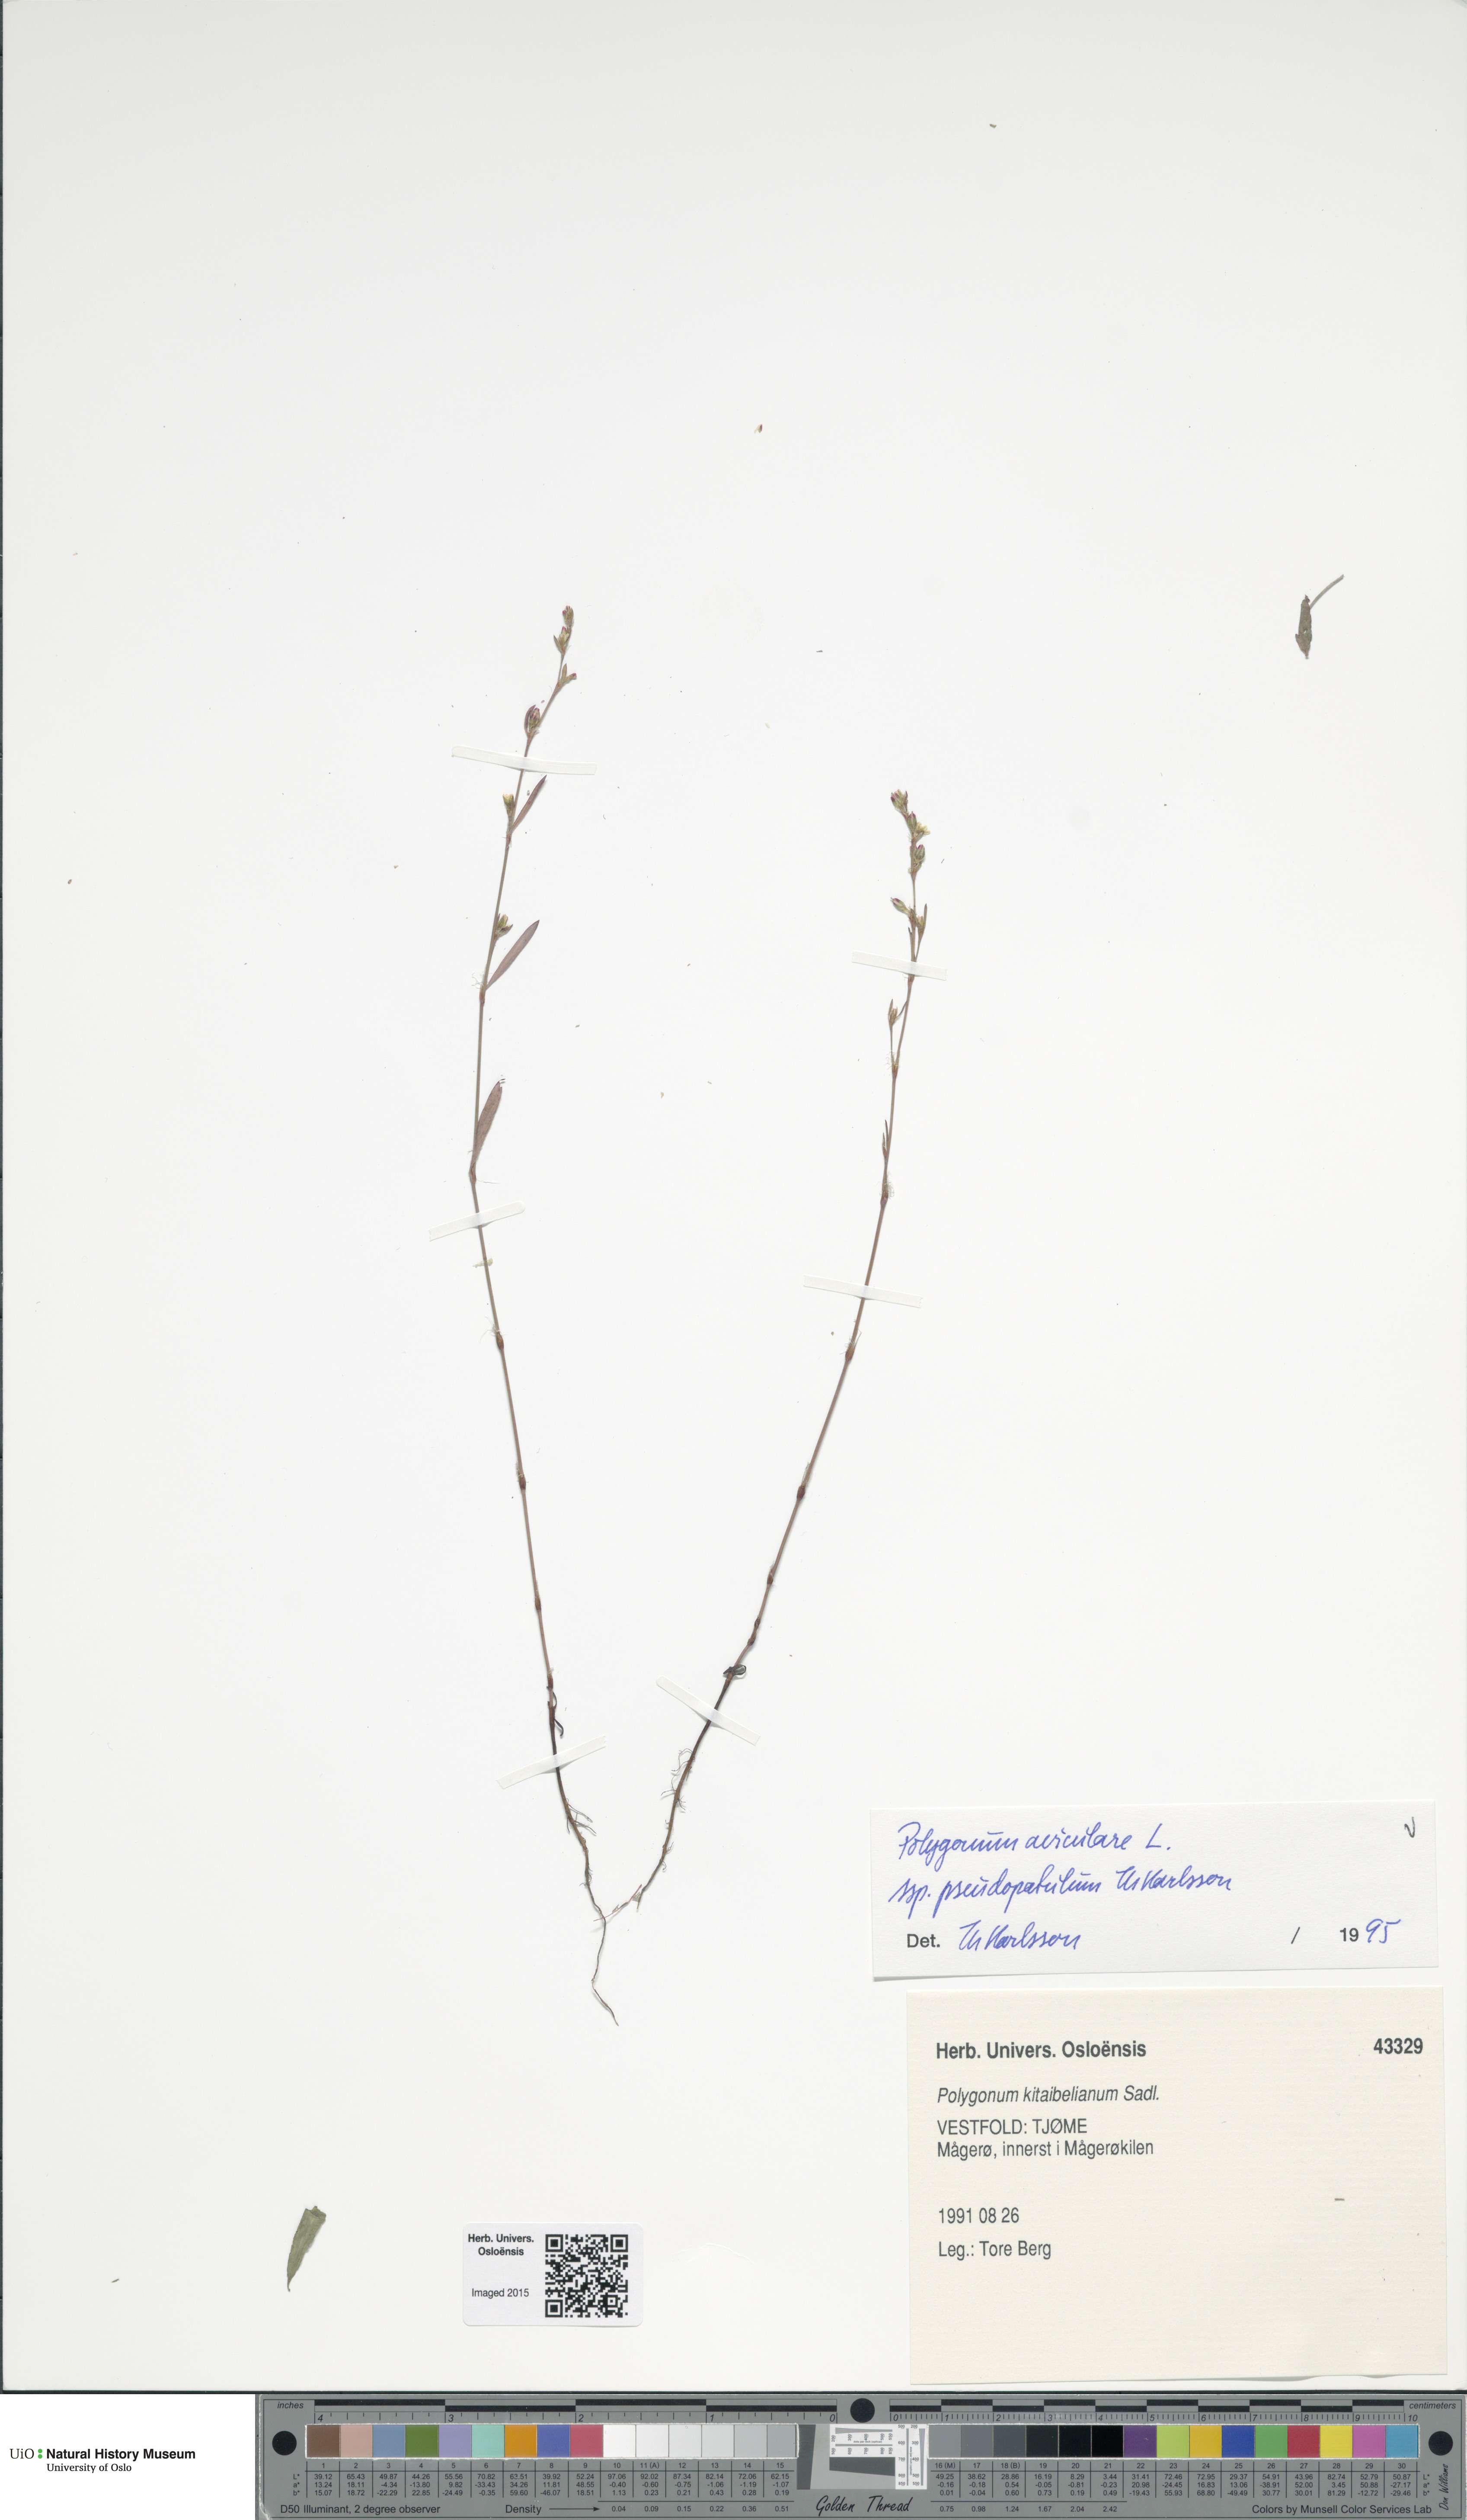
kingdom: Plantae
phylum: Tracheophyta
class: Magnoliopsida
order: Caryophyllales
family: Polygonaceae
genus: Polygonum
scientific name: Polygonum excelsius
